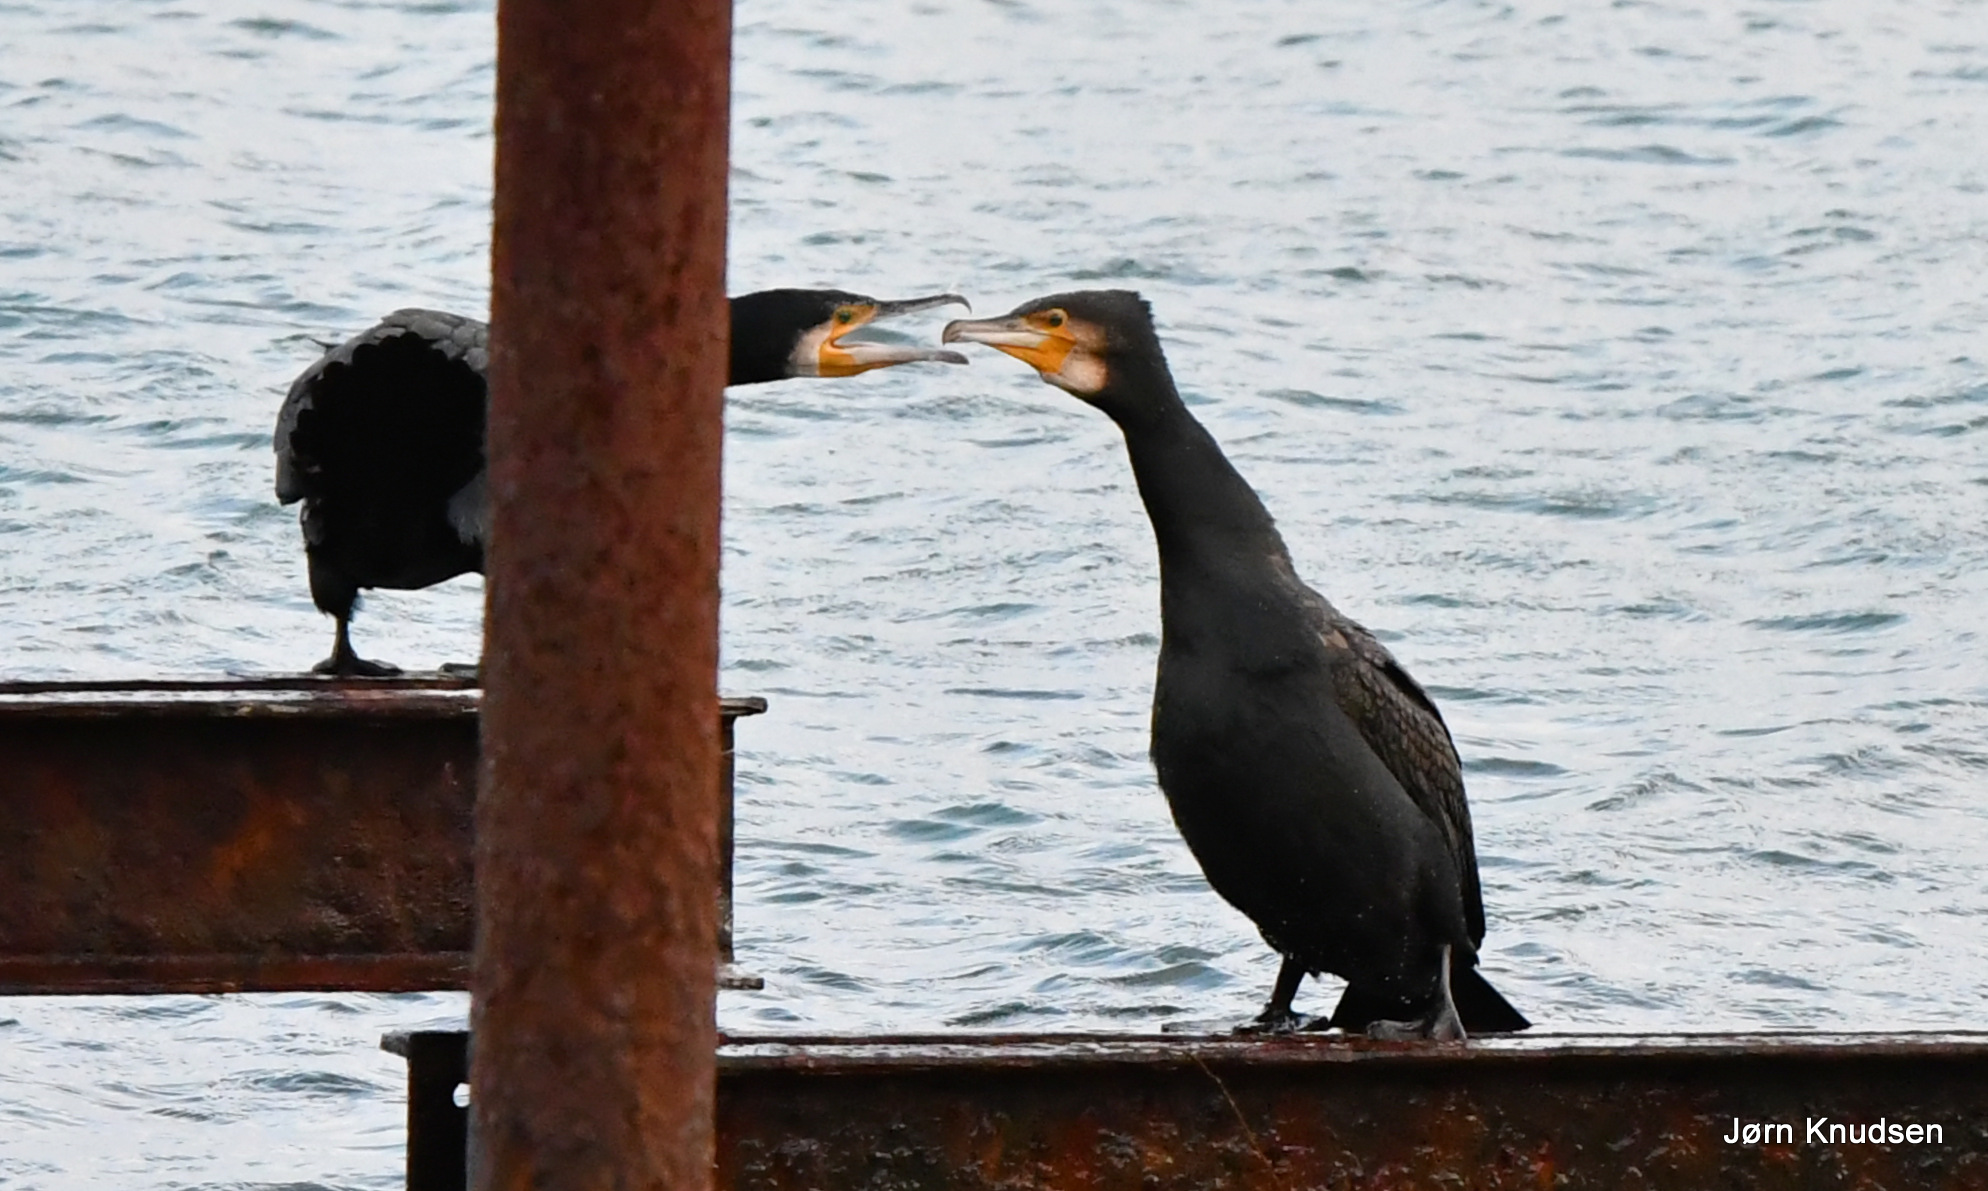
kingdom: Animalia
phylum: Chordata
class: Aves
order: Suliformes
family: Phalacrocoracidae
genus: Phalacrocorax
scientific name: Phalacrocorax carbo
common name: Skarv
